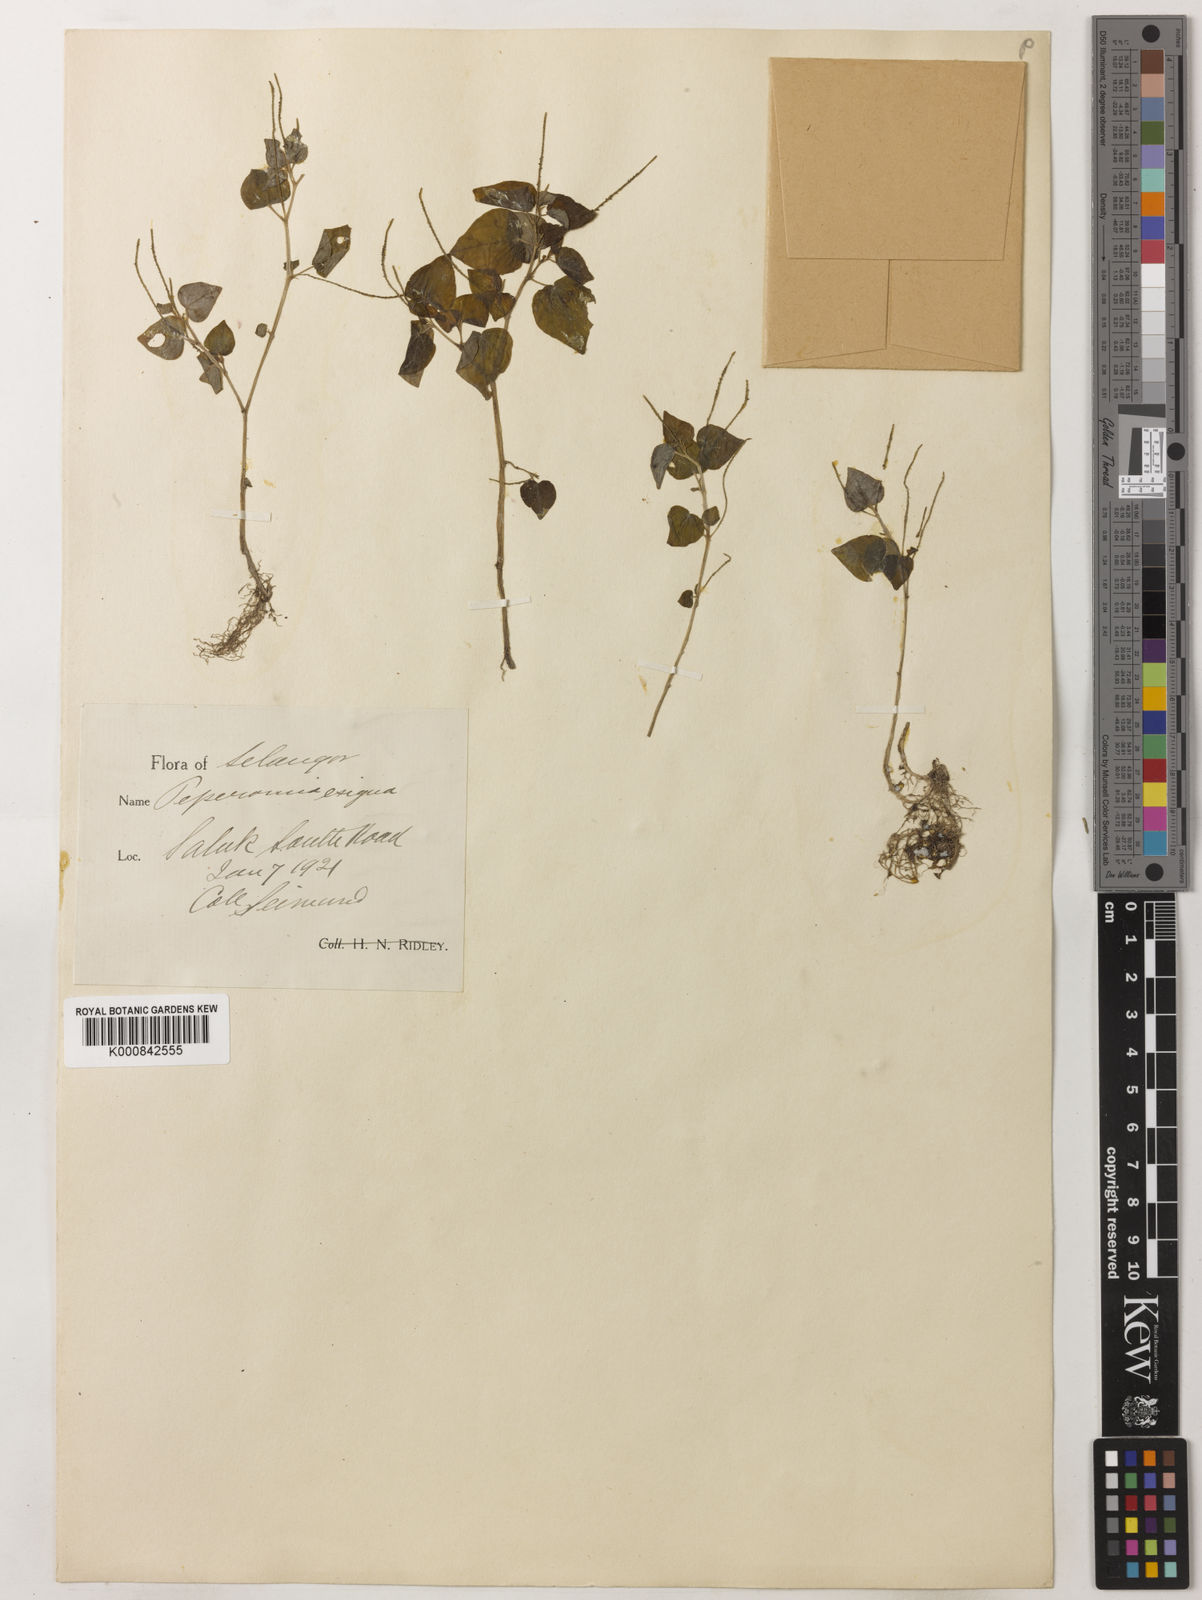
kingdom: Plantae
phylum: Tracheophyta
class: Magnoliopsida
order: Piperales
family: Piperaceae
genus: Peperomia
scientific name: Peperomia pellucida
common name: Man to man
